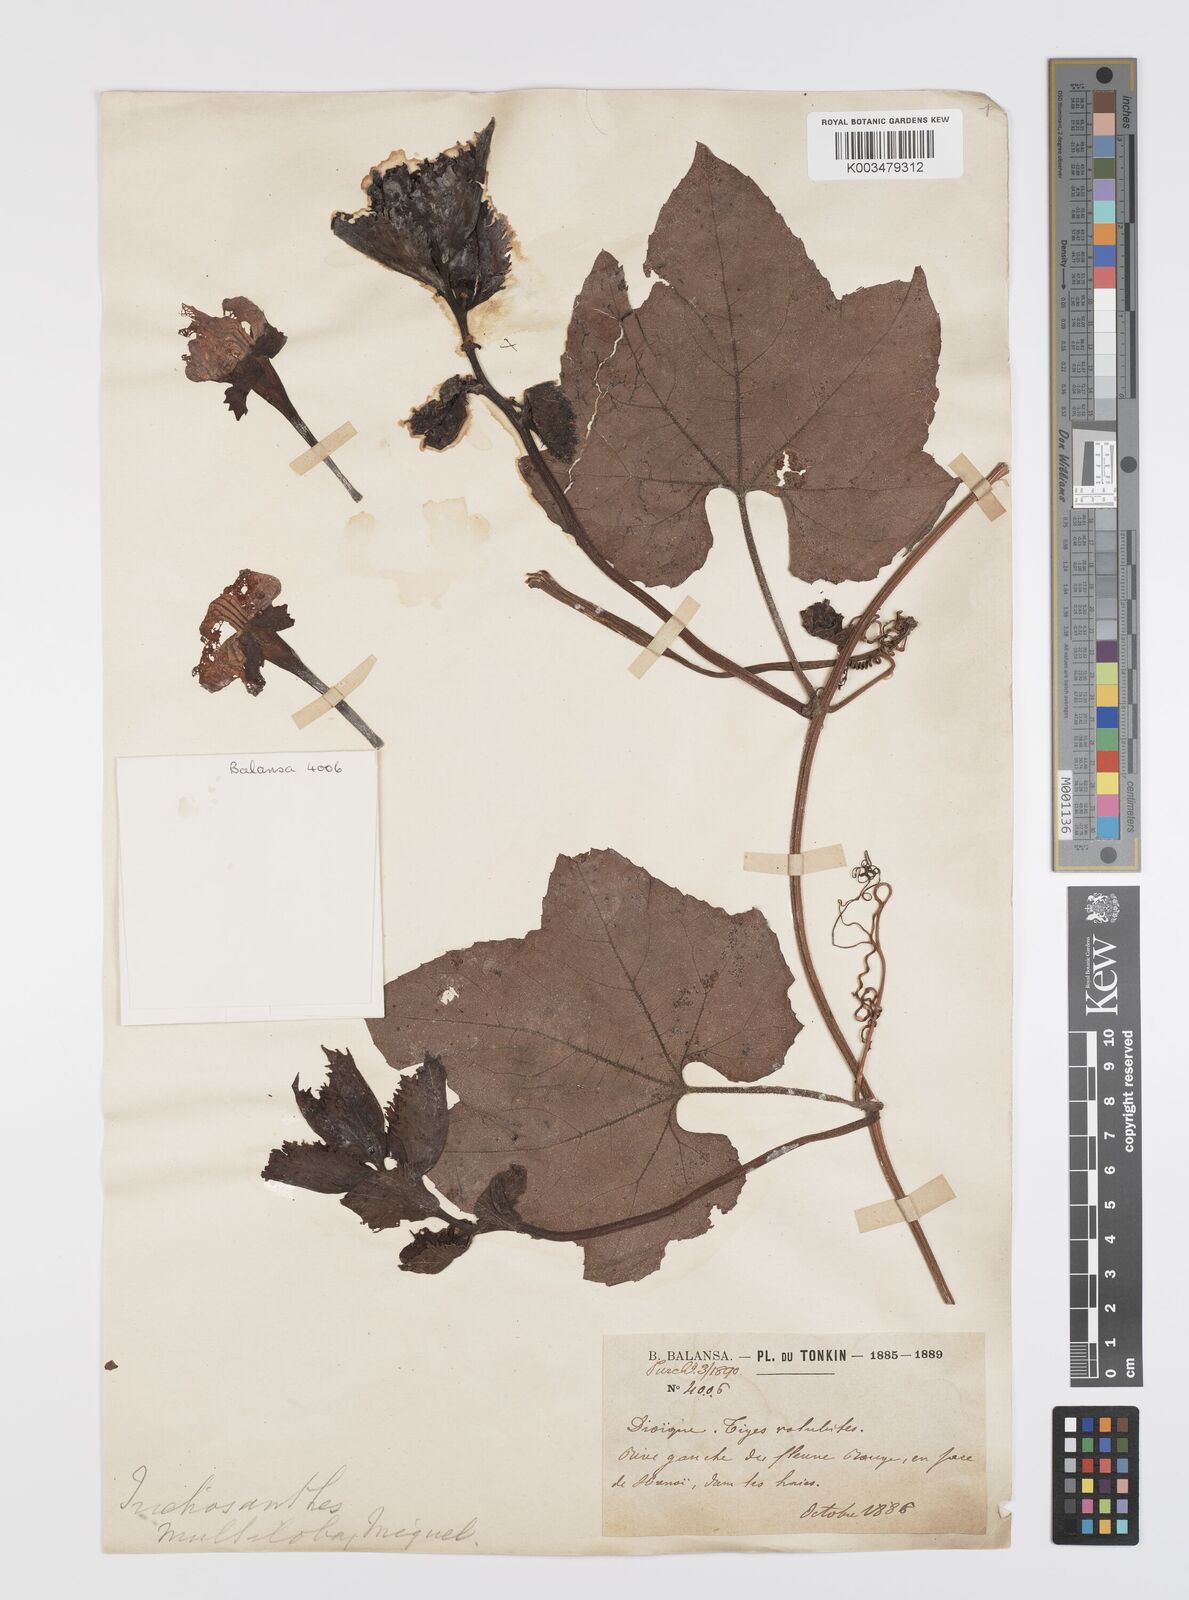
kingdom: Plantae
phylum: Tracheophyta
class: Magnoliopsida
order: Cucurbitales
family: Cucurbitaceae
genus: Trichosanthes
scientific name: Trichosanthes rubriflos
